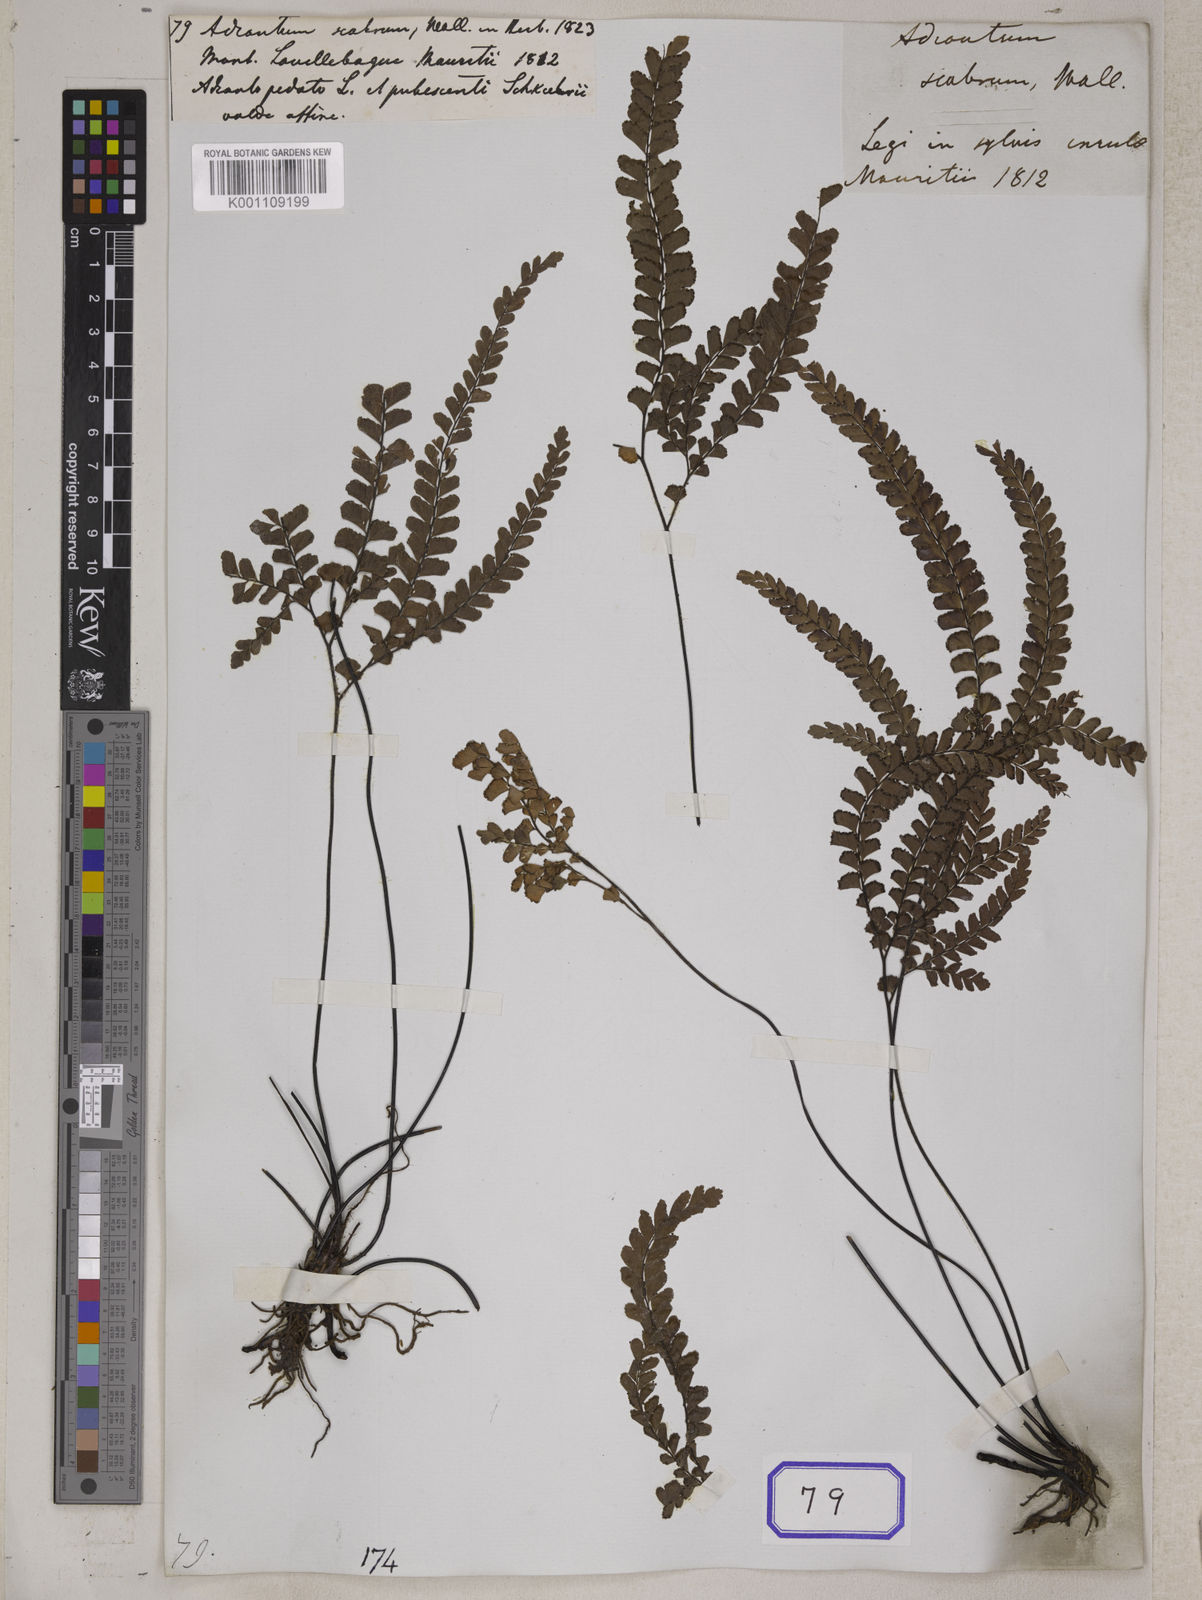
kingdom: Plantae
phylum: Tracheophyta
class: Polypodiopsida
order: Polypodiales
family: Pteridaceae
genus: Adiantum
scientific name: Adiantum hispidulum
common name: Rough maidenhair
